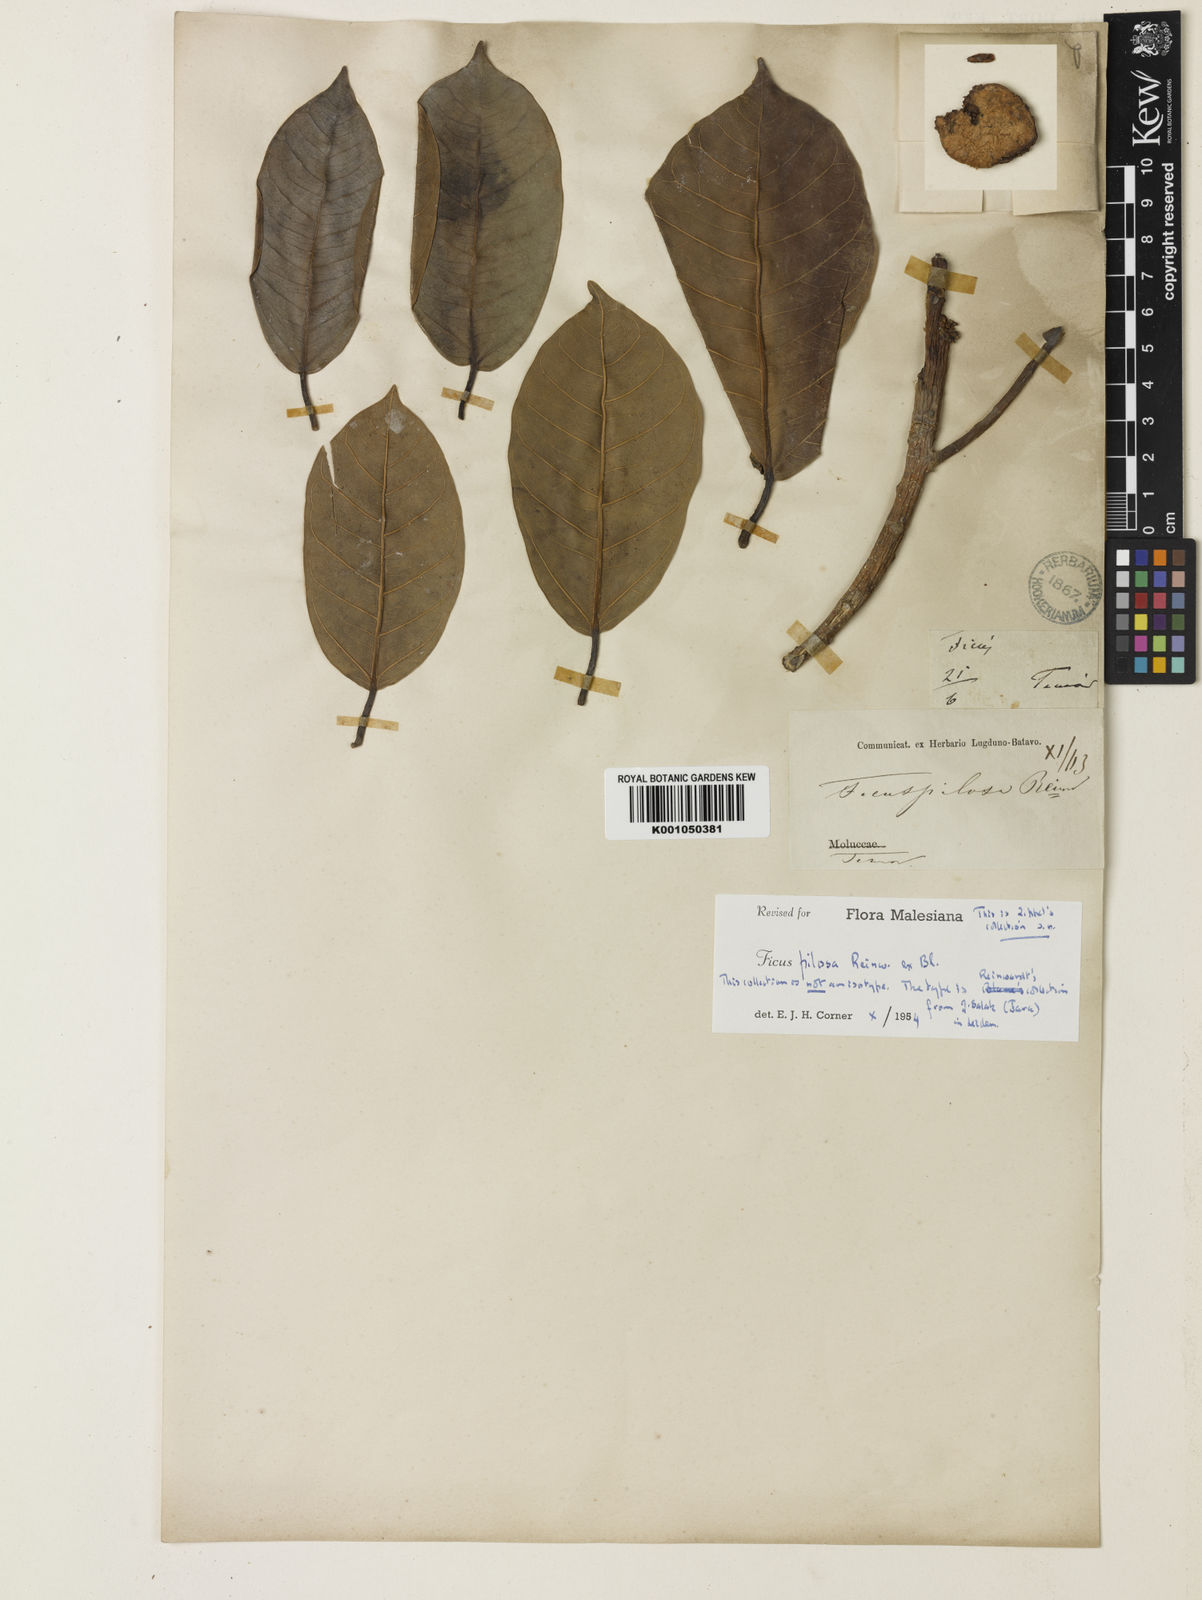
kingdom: Plantae
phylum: Tracheophyta
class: Magnoliopsida
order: Rosales
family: Moraceae
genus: Ficus
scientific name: Ficus drupacea
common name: Drupe fig
